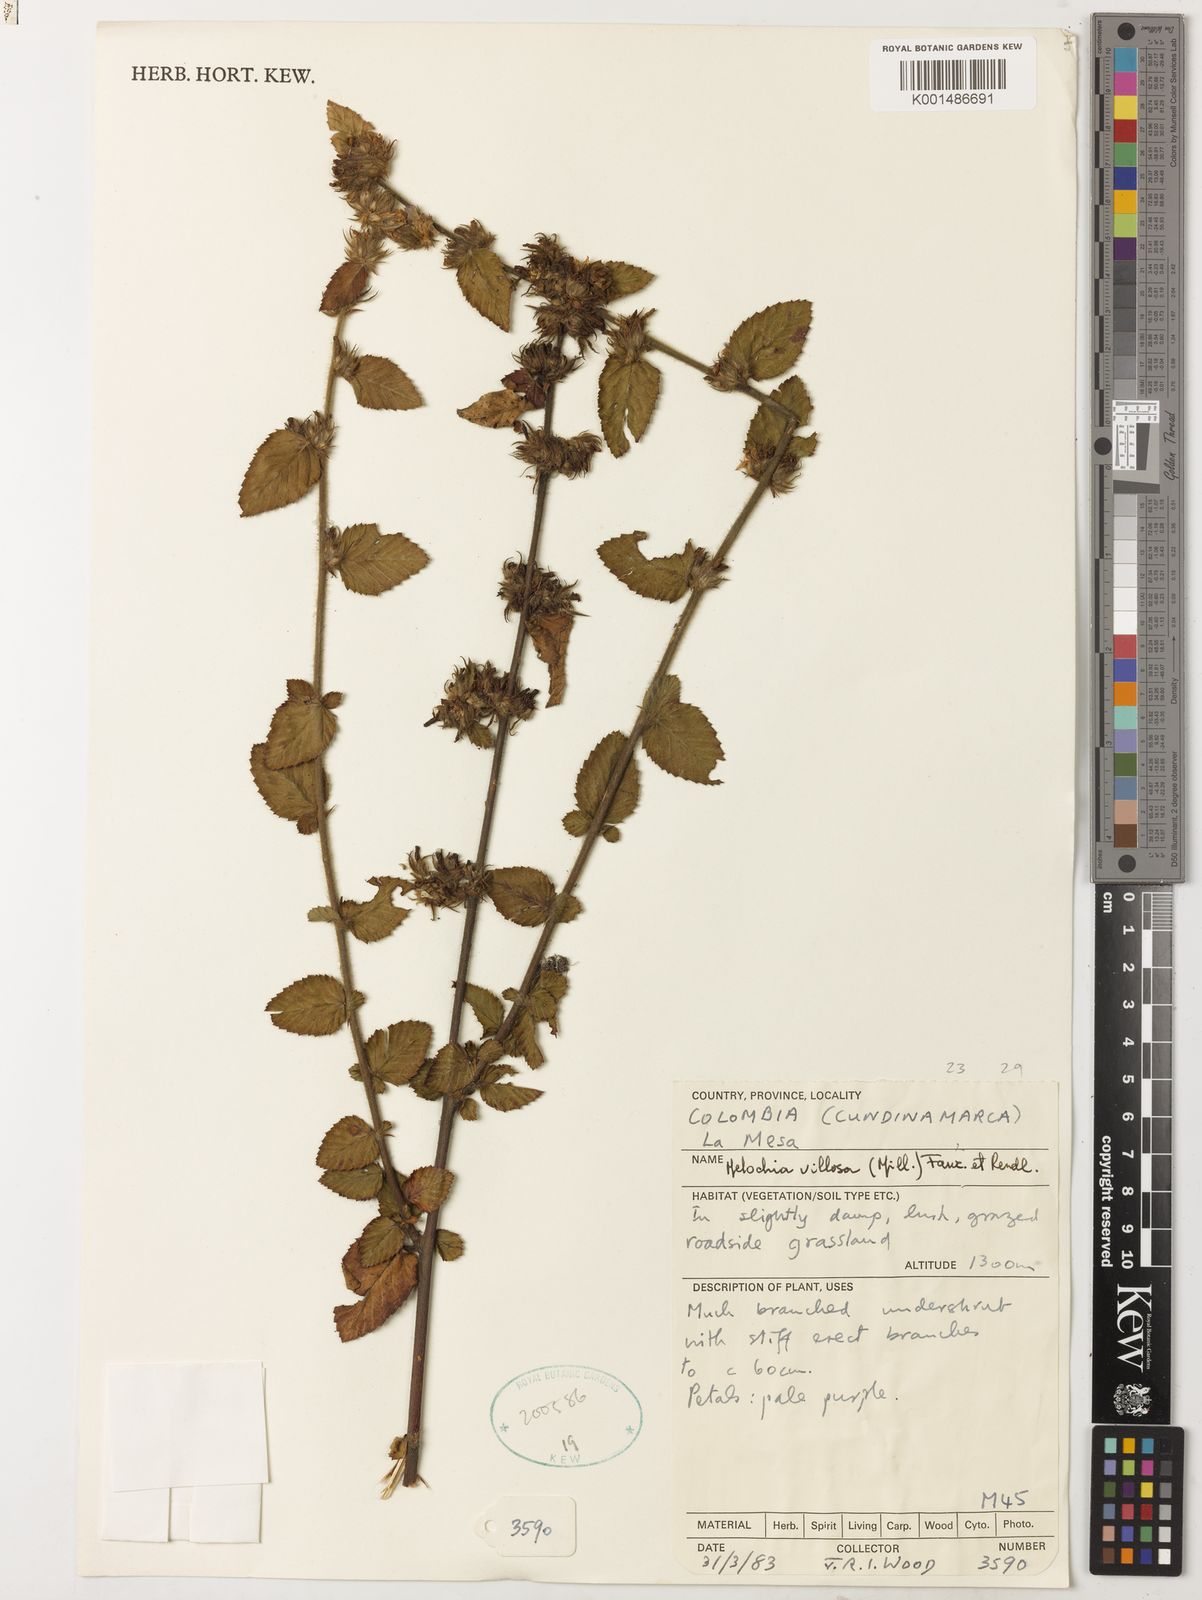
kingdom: Plantae
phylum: Tracheophyta
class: Magnoliopsida
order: Malvales
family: Malvaceae
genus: Melochia
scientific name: Melochia spicata
